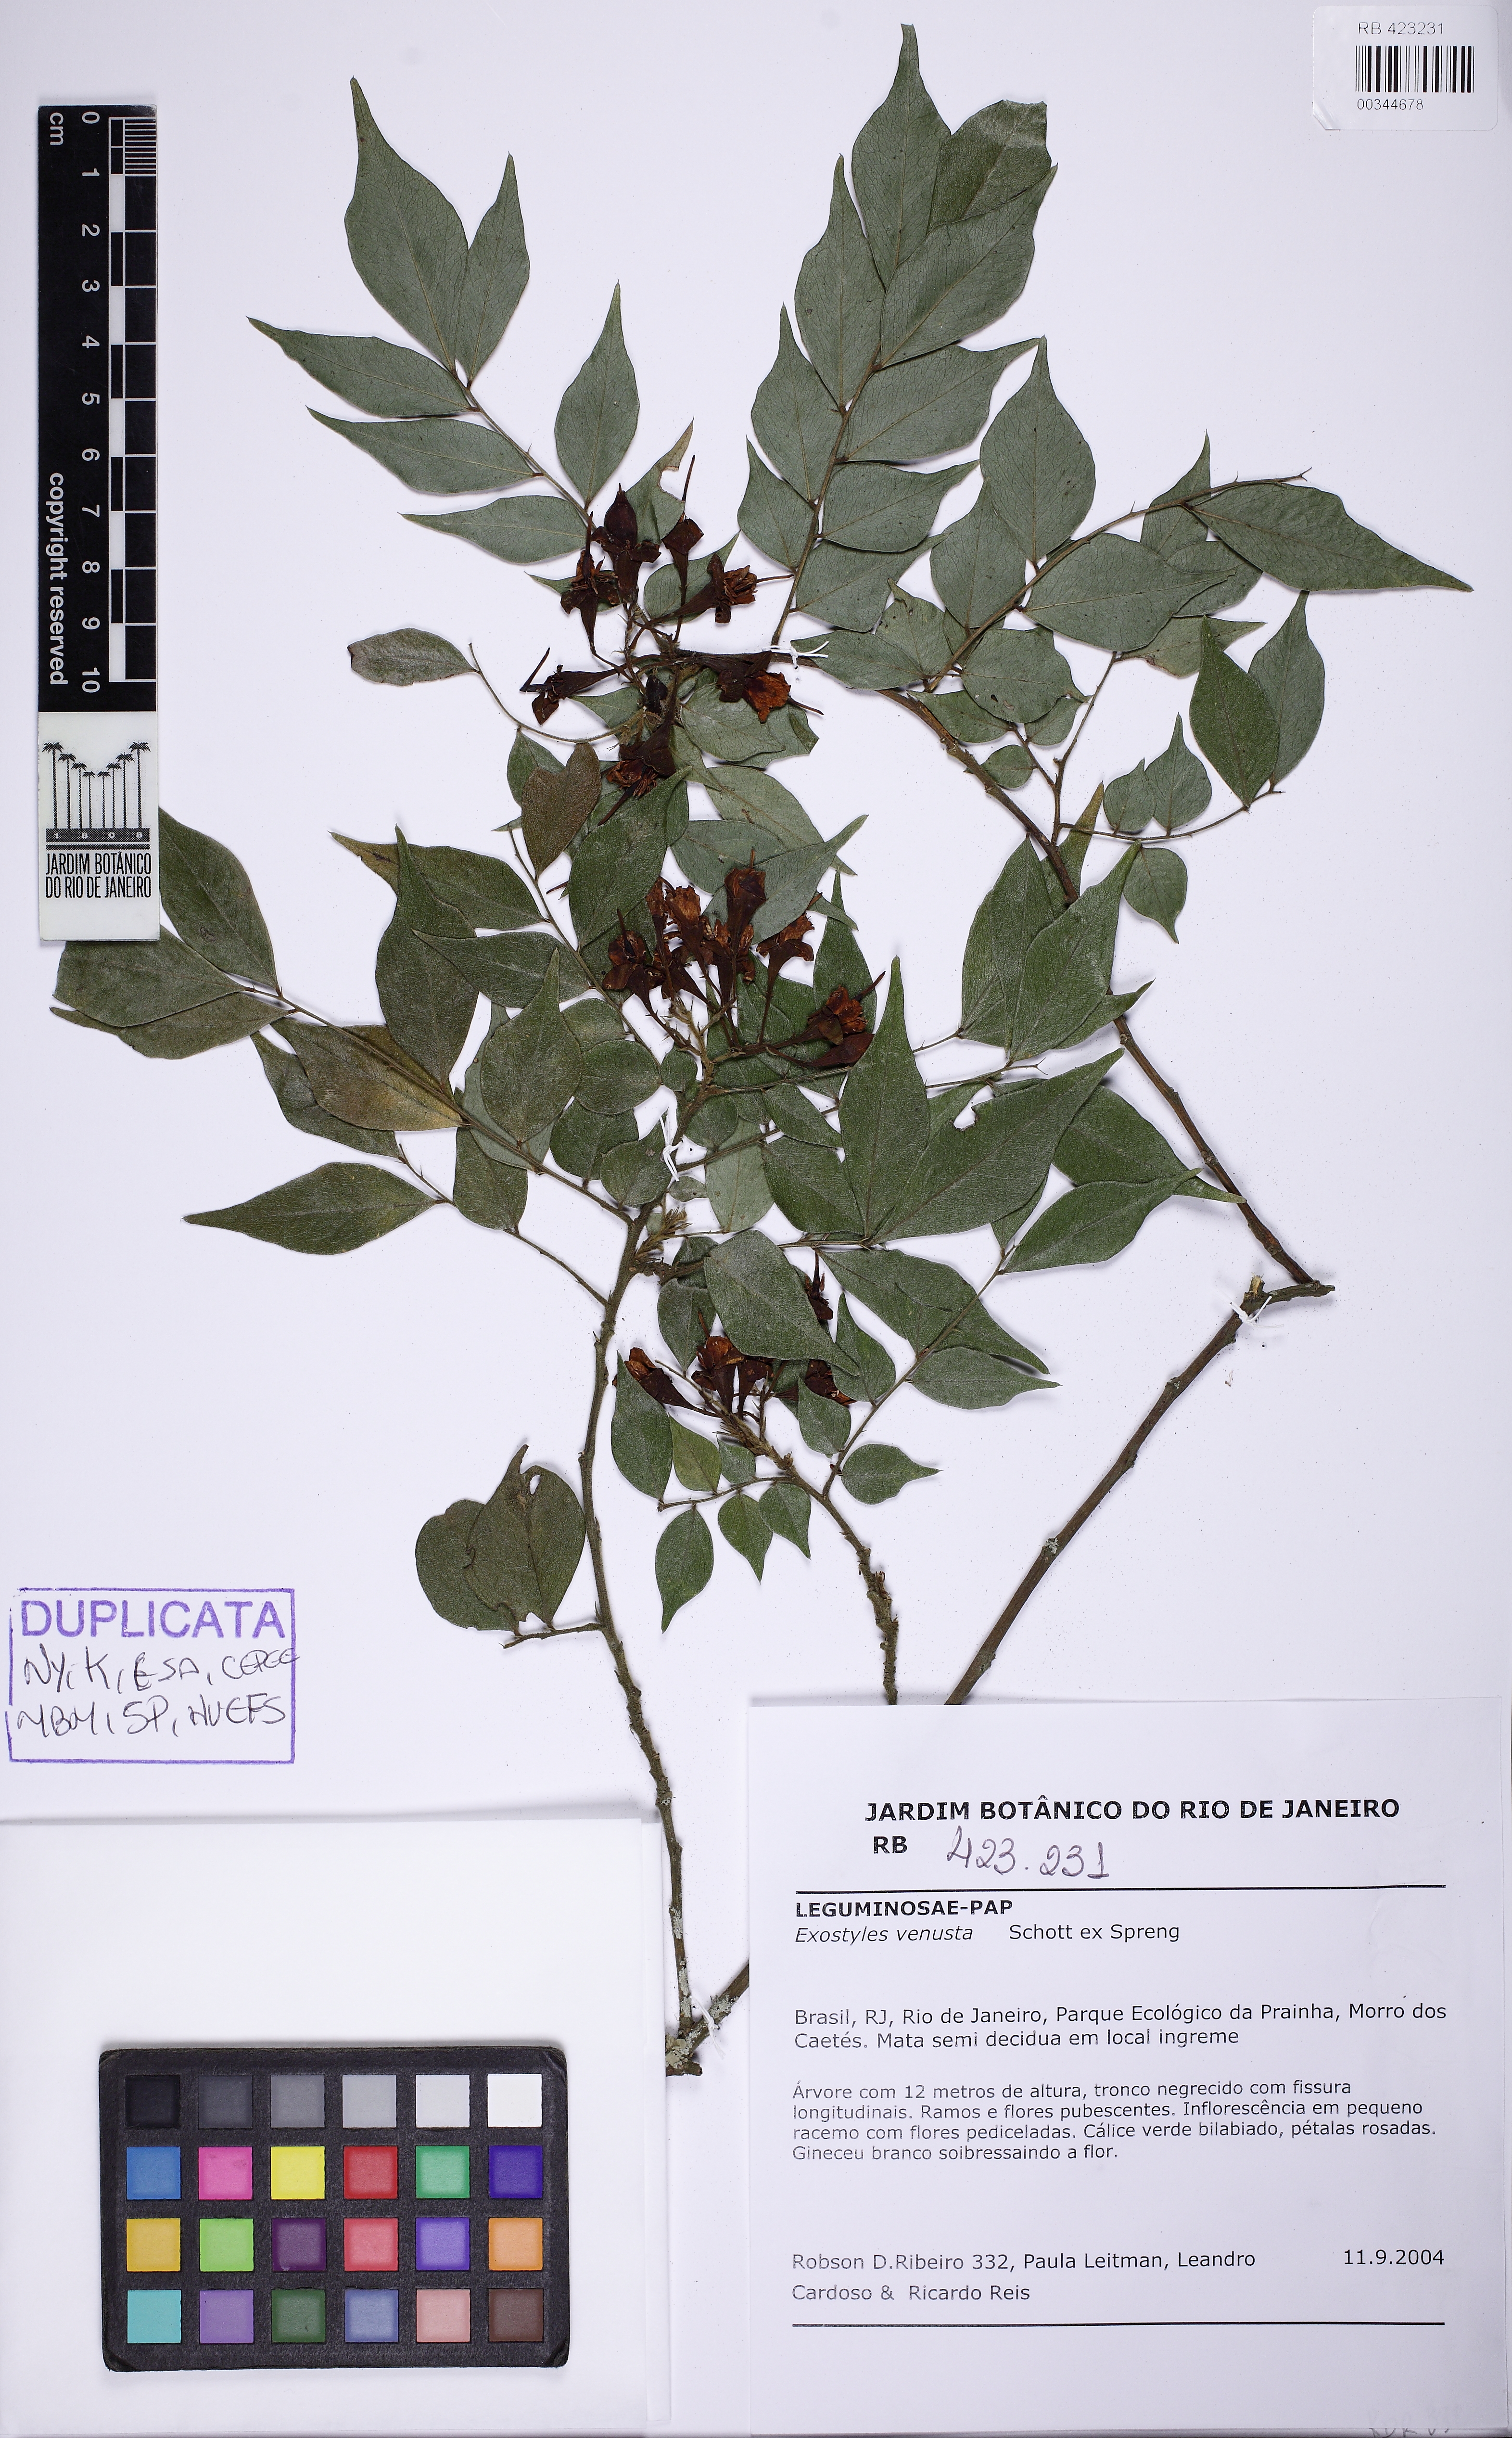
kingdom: Plantae
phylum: Tracheophyta
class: Magnoliopsida
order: Fabales
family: Fabaceae
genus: Exostyles
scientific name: Exostyles venusta
